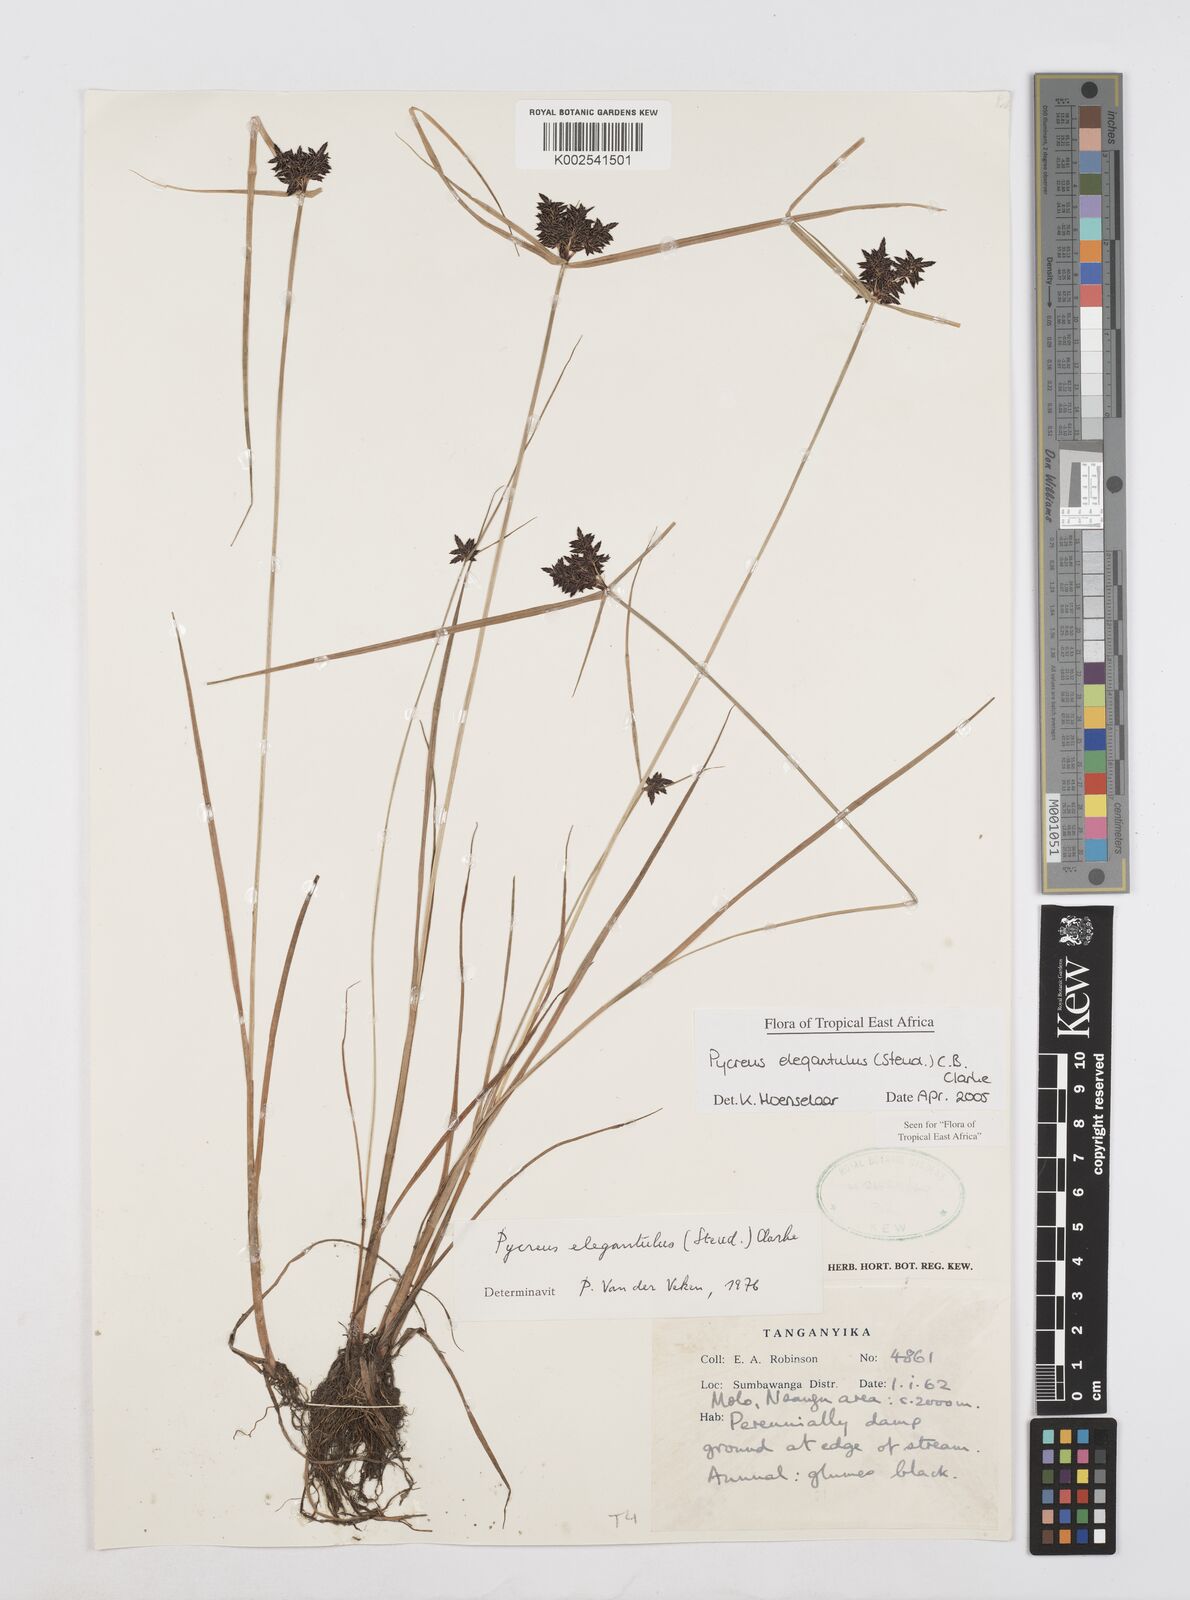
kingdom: Plantae
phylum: Tracheophyta
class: Liliopsida
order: Poales
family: Cyperaceae
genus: Cyperus
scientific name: Cyperus elegantulus
